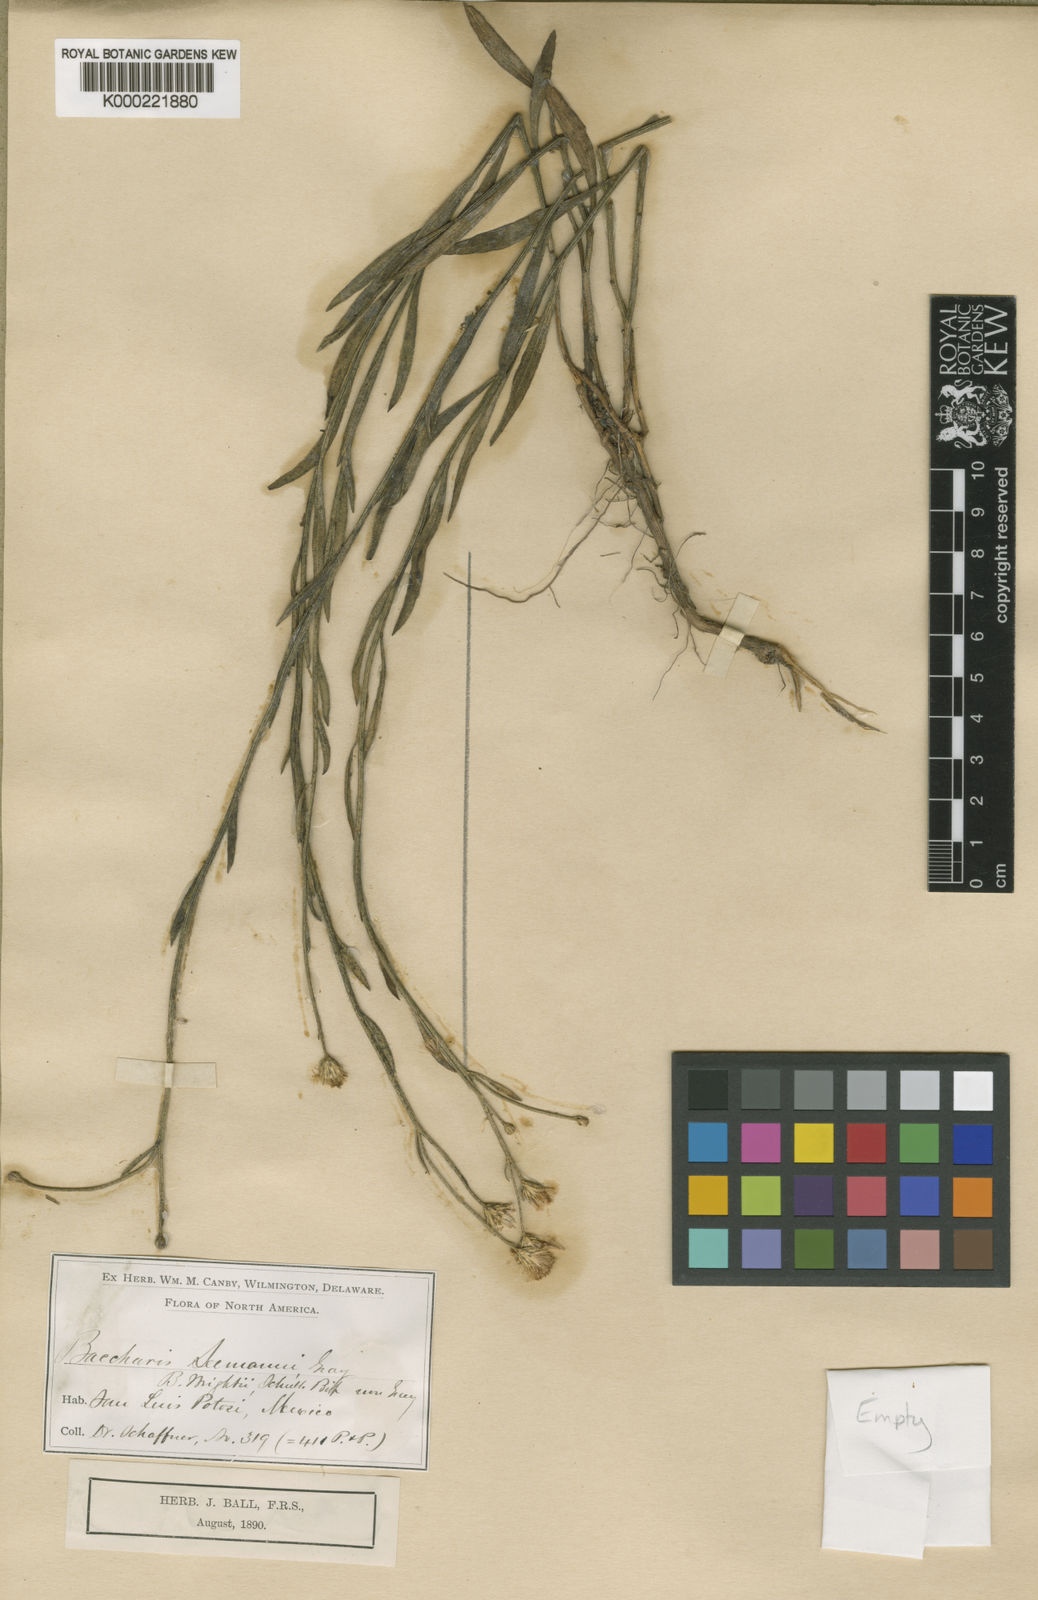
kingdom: Plantae
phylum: Tracheophyta
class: Magnoliopsida
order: Asterales
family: Asteraceae
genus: Baccharis
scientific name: Baccharis squarrosa
